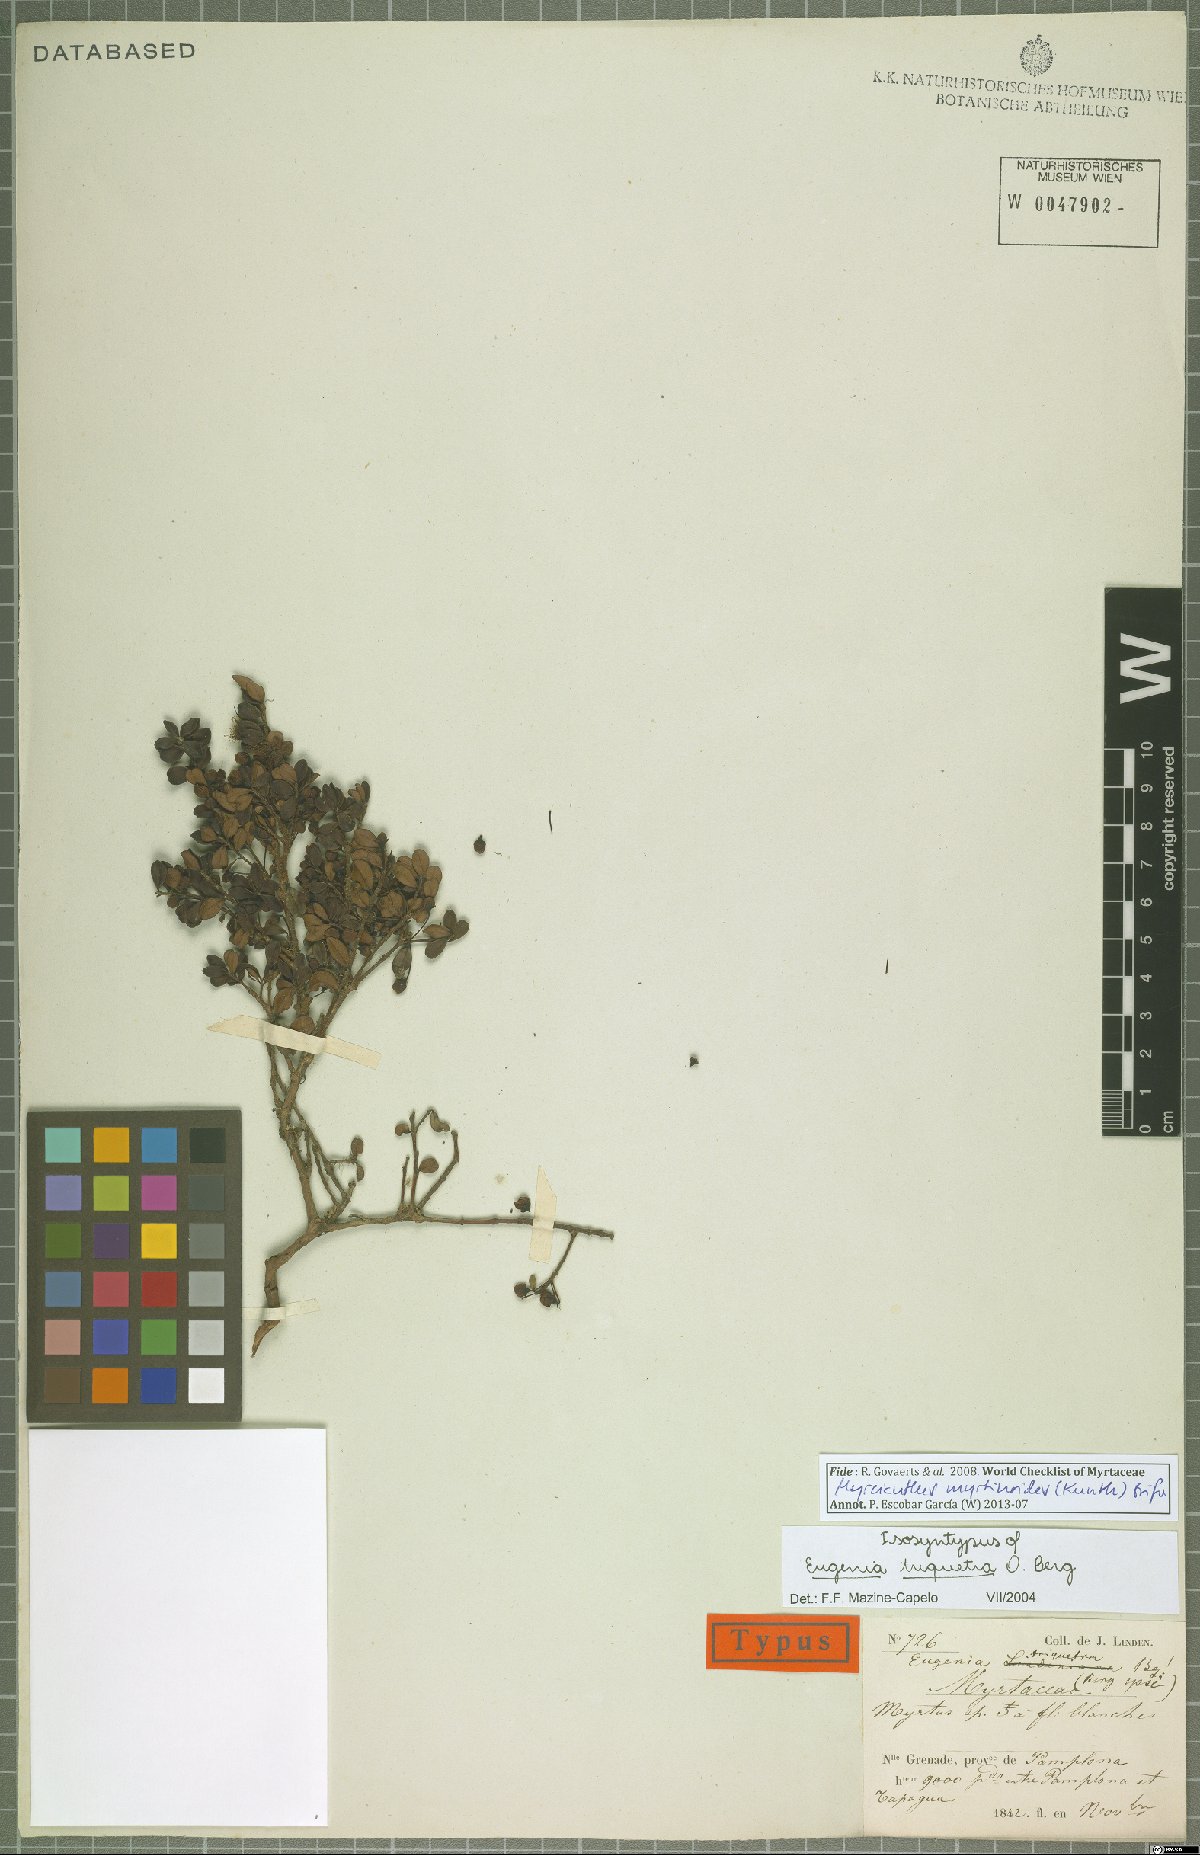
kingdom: Plantae
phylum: Tracheophyta
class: Magnoliopsida
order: Myrtales
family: Myrtaceae
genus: Myrcianthes
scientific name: Myrcianthes myrsinoides
